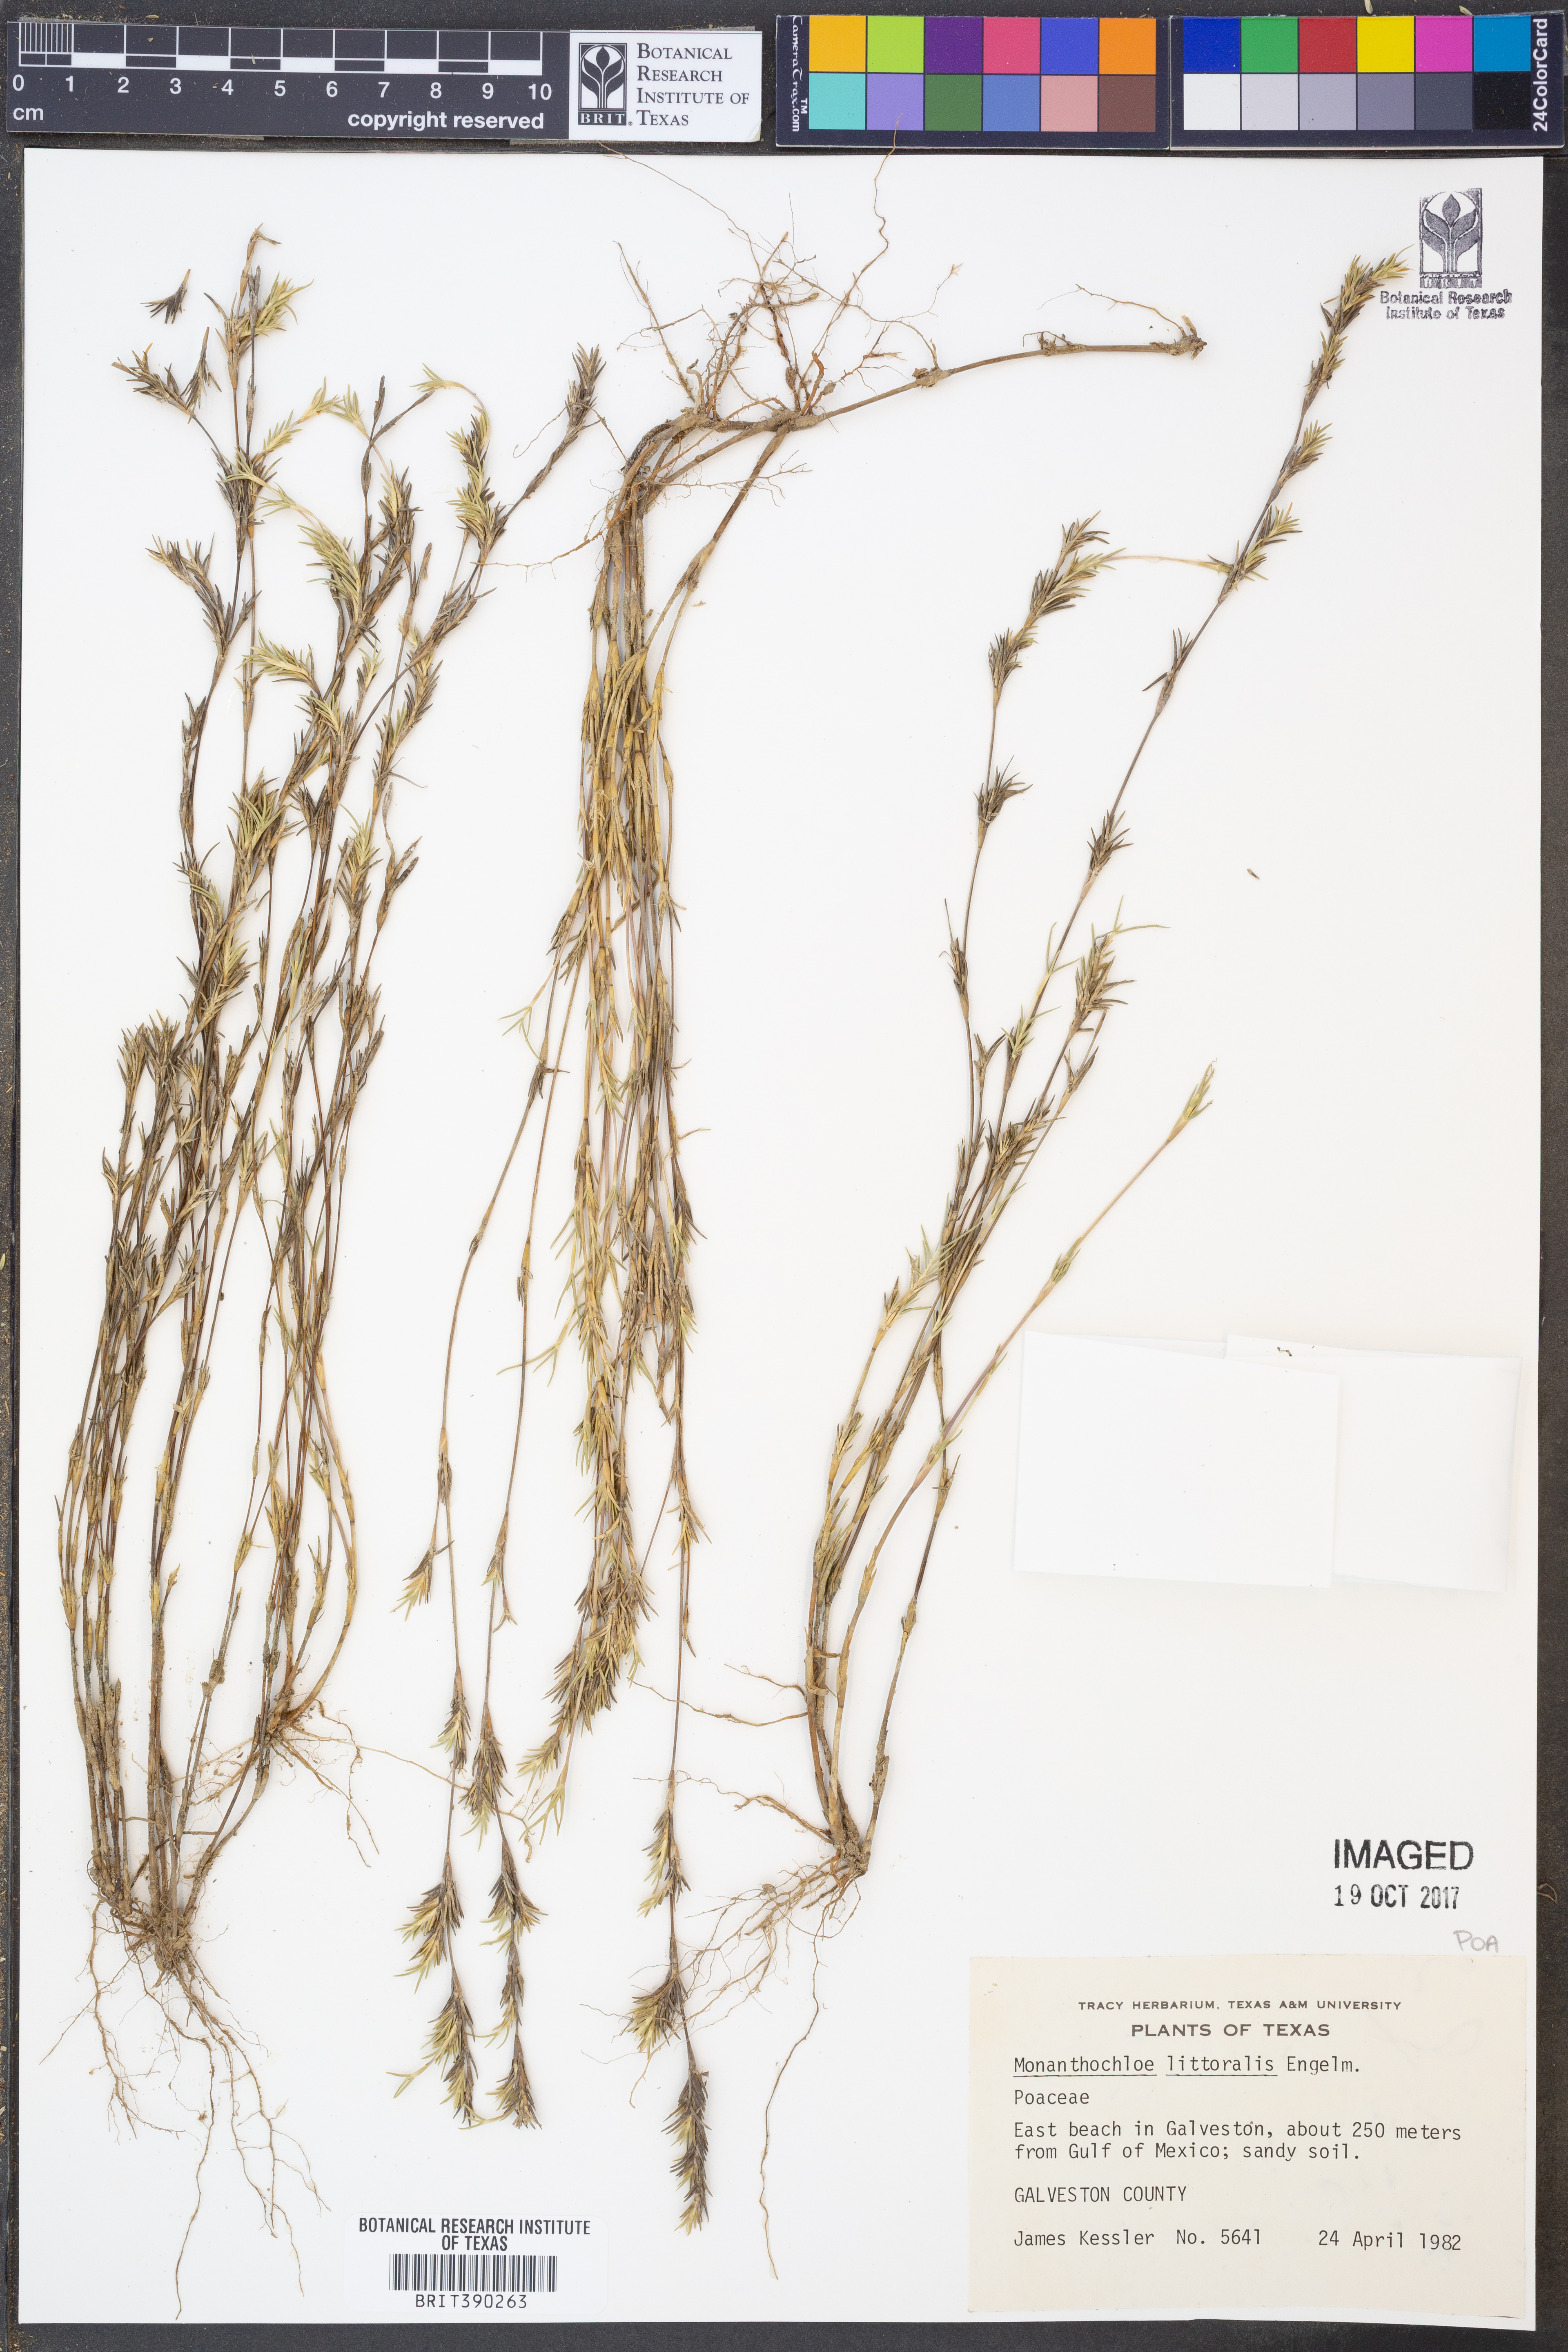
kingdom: Plantae
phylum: Tracheophyta
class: Liliopsida
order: Poales
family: Poaceae
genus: Distichlis
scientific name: Distichlis littoralis
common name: Shore grass
